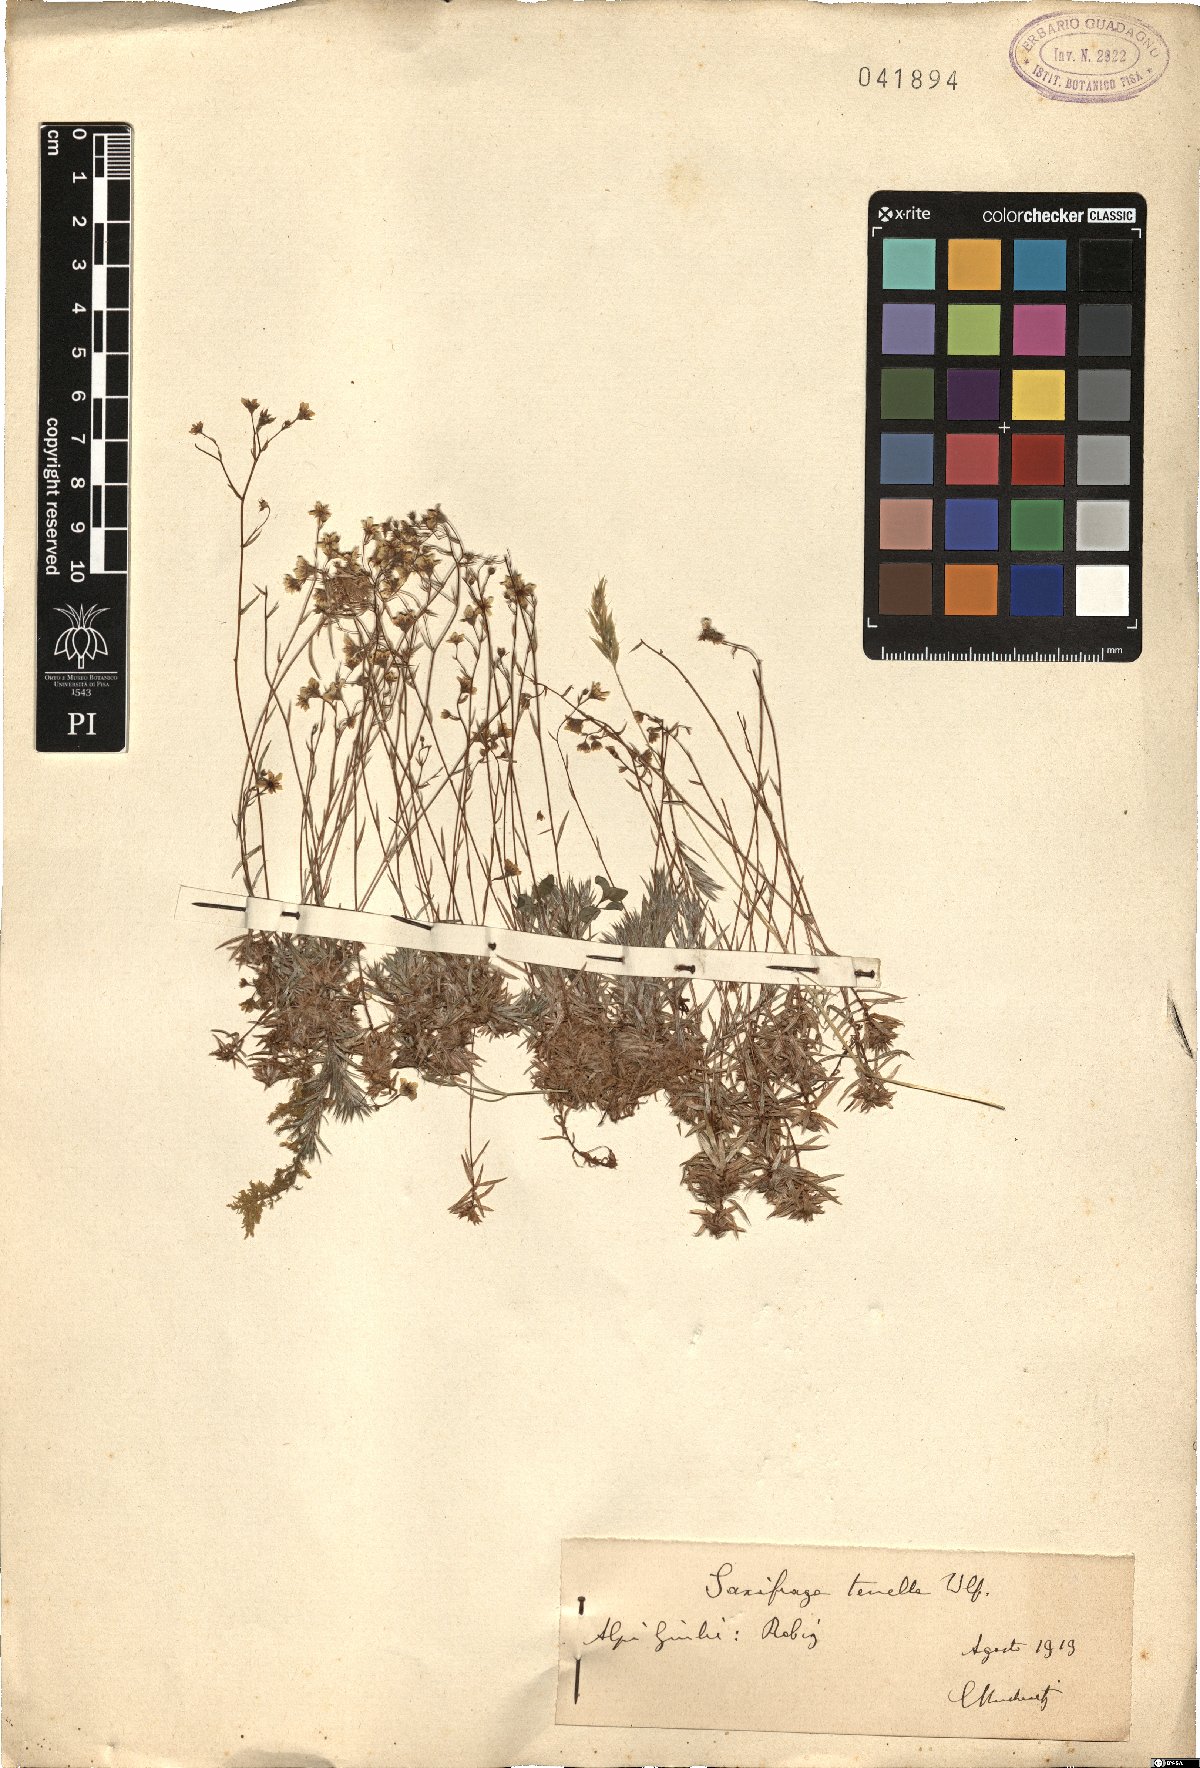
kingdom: Plantae
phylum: Tracheophyta
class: Magnoliopsida
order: Saxifragales
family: Saxifragaceae
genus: Saxifraga
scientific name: Saxifraga tenella
